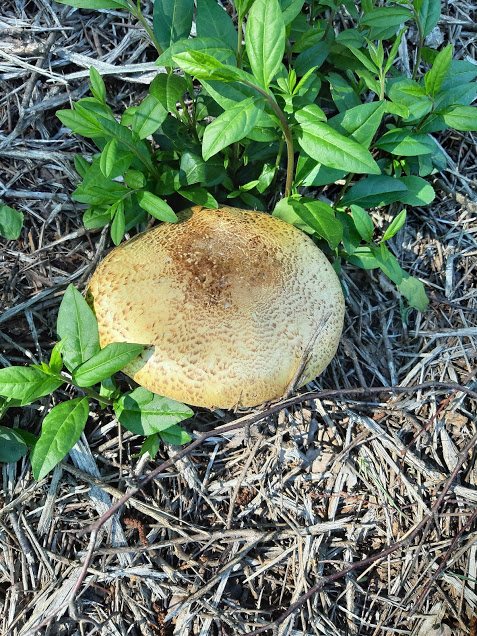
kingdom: Fungi
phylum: Basidiomycota
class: Agaricomycetes
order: Agaricales
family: Agaricaceae
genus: Agaricus
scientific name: Agaricus augustus
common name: prægtig champignon
